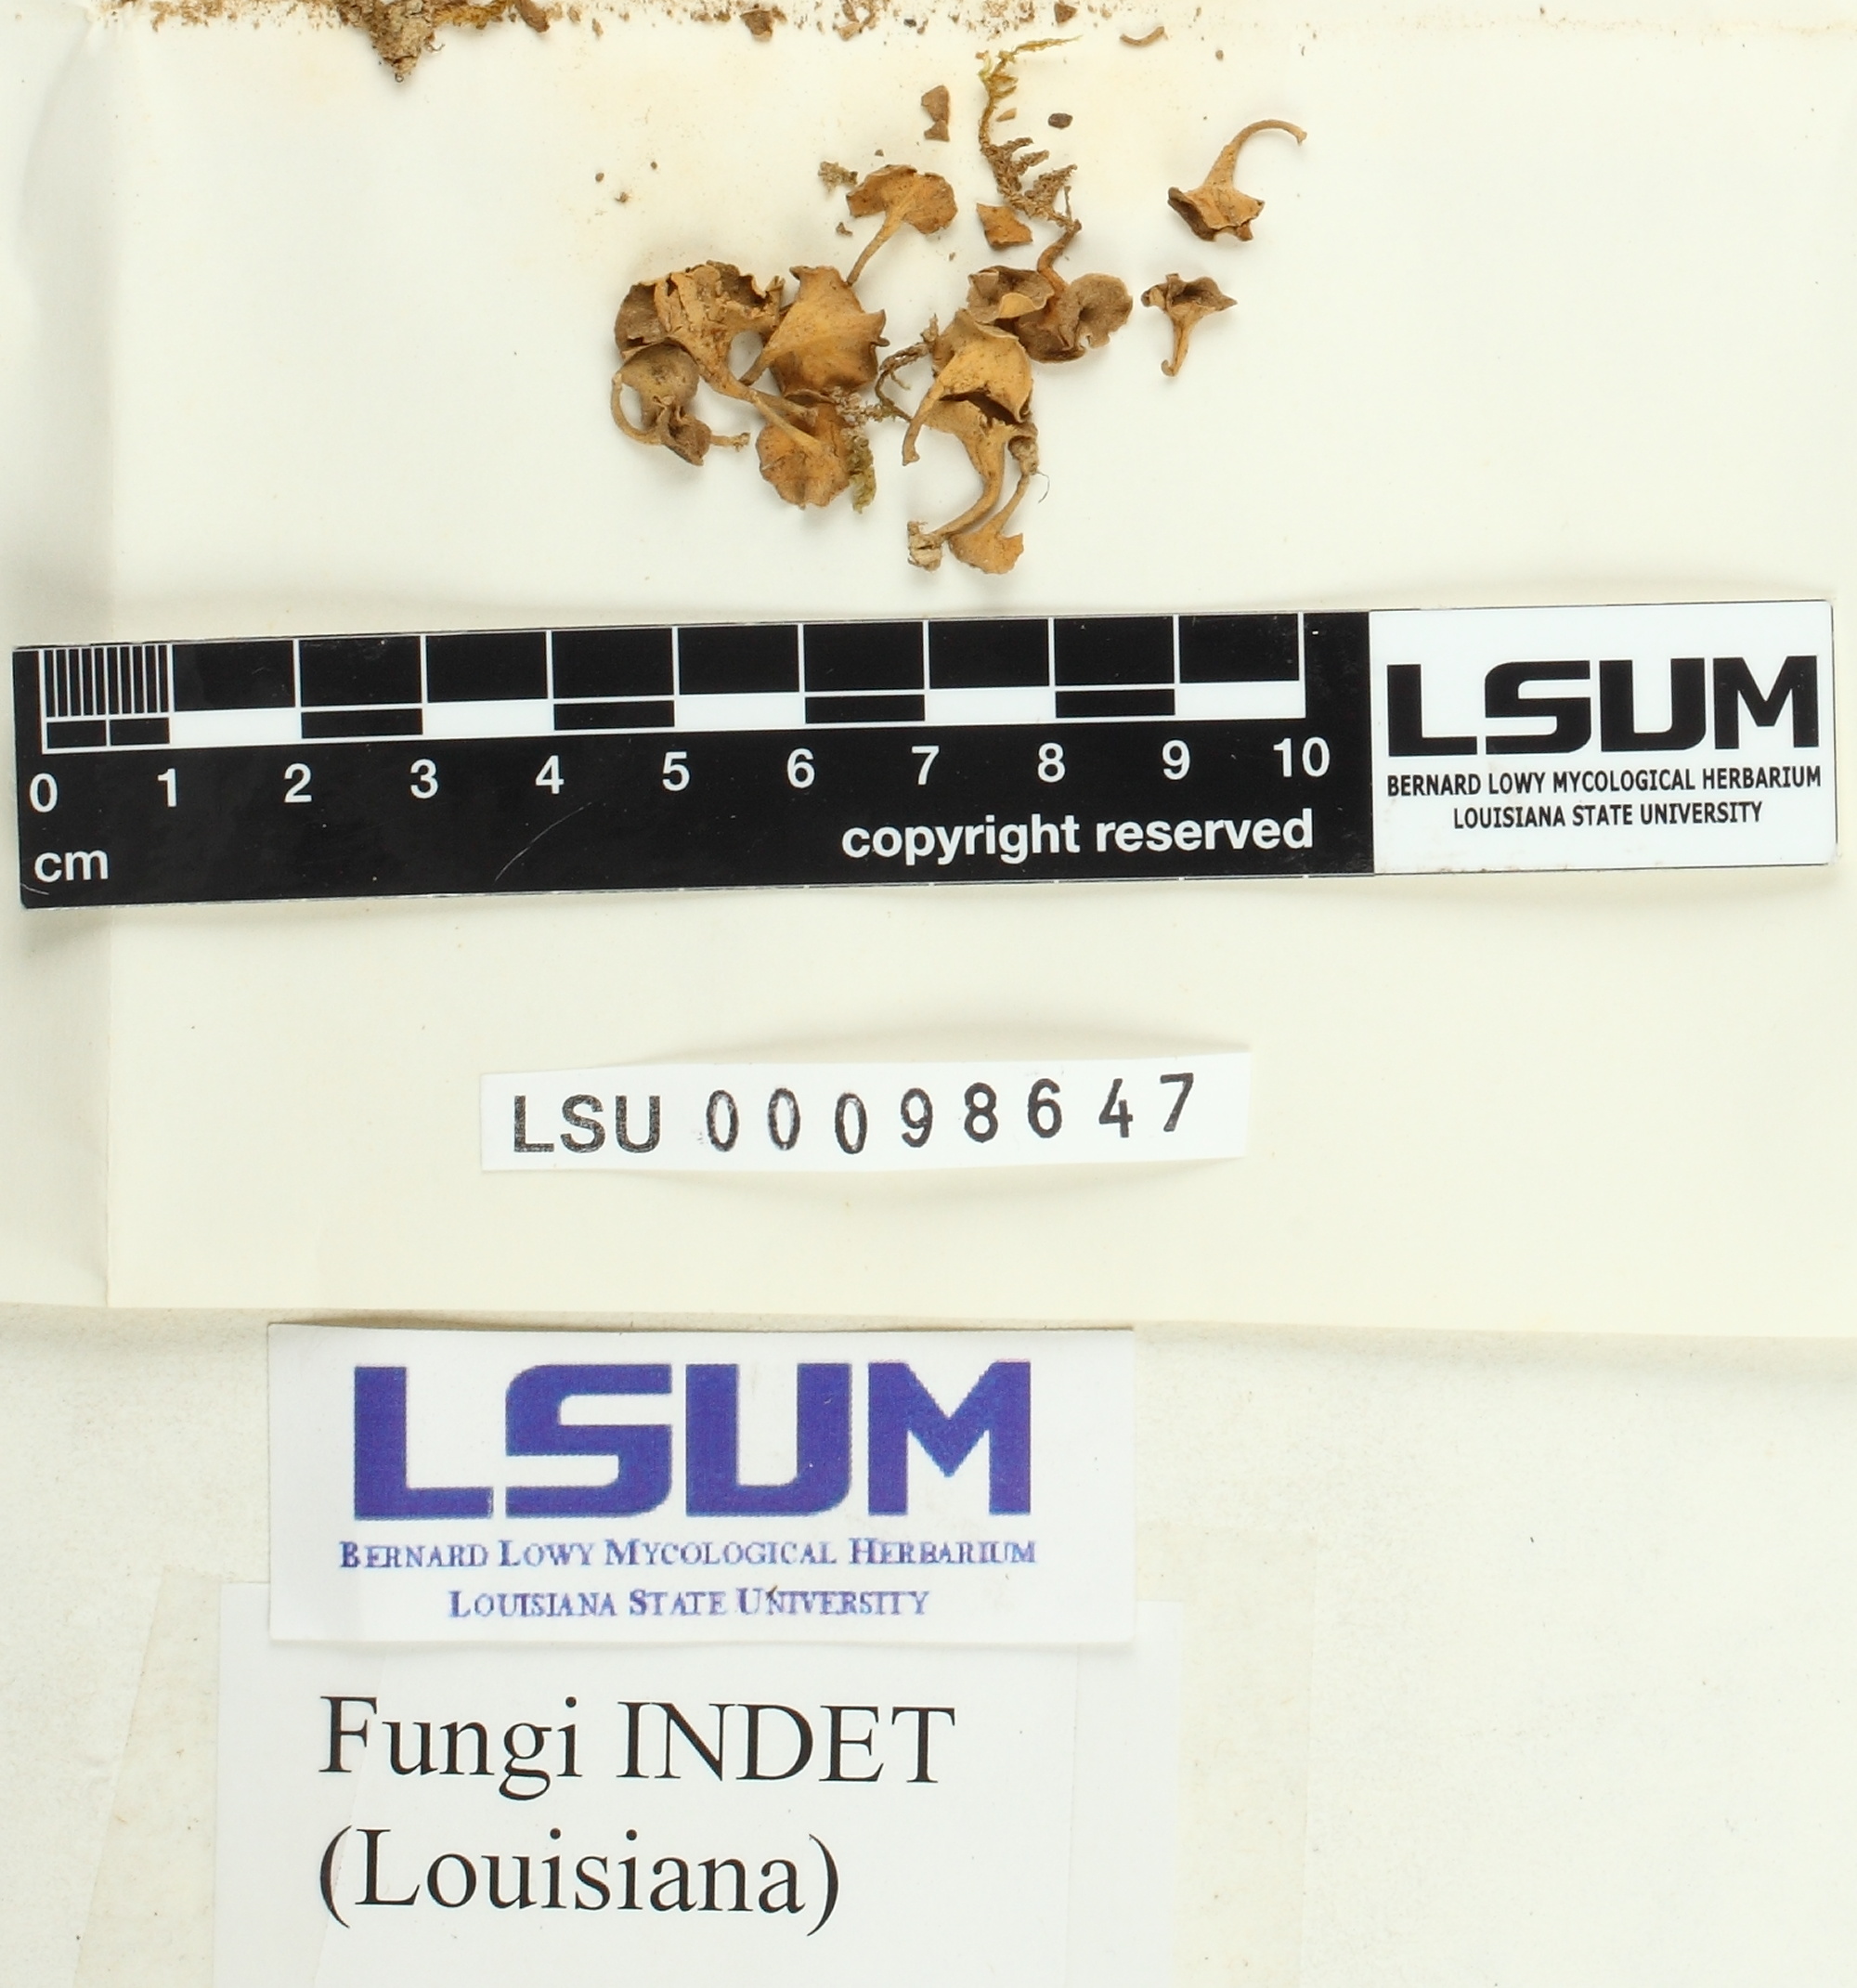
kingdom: Fungi
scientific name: Fungi
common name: Fungi
